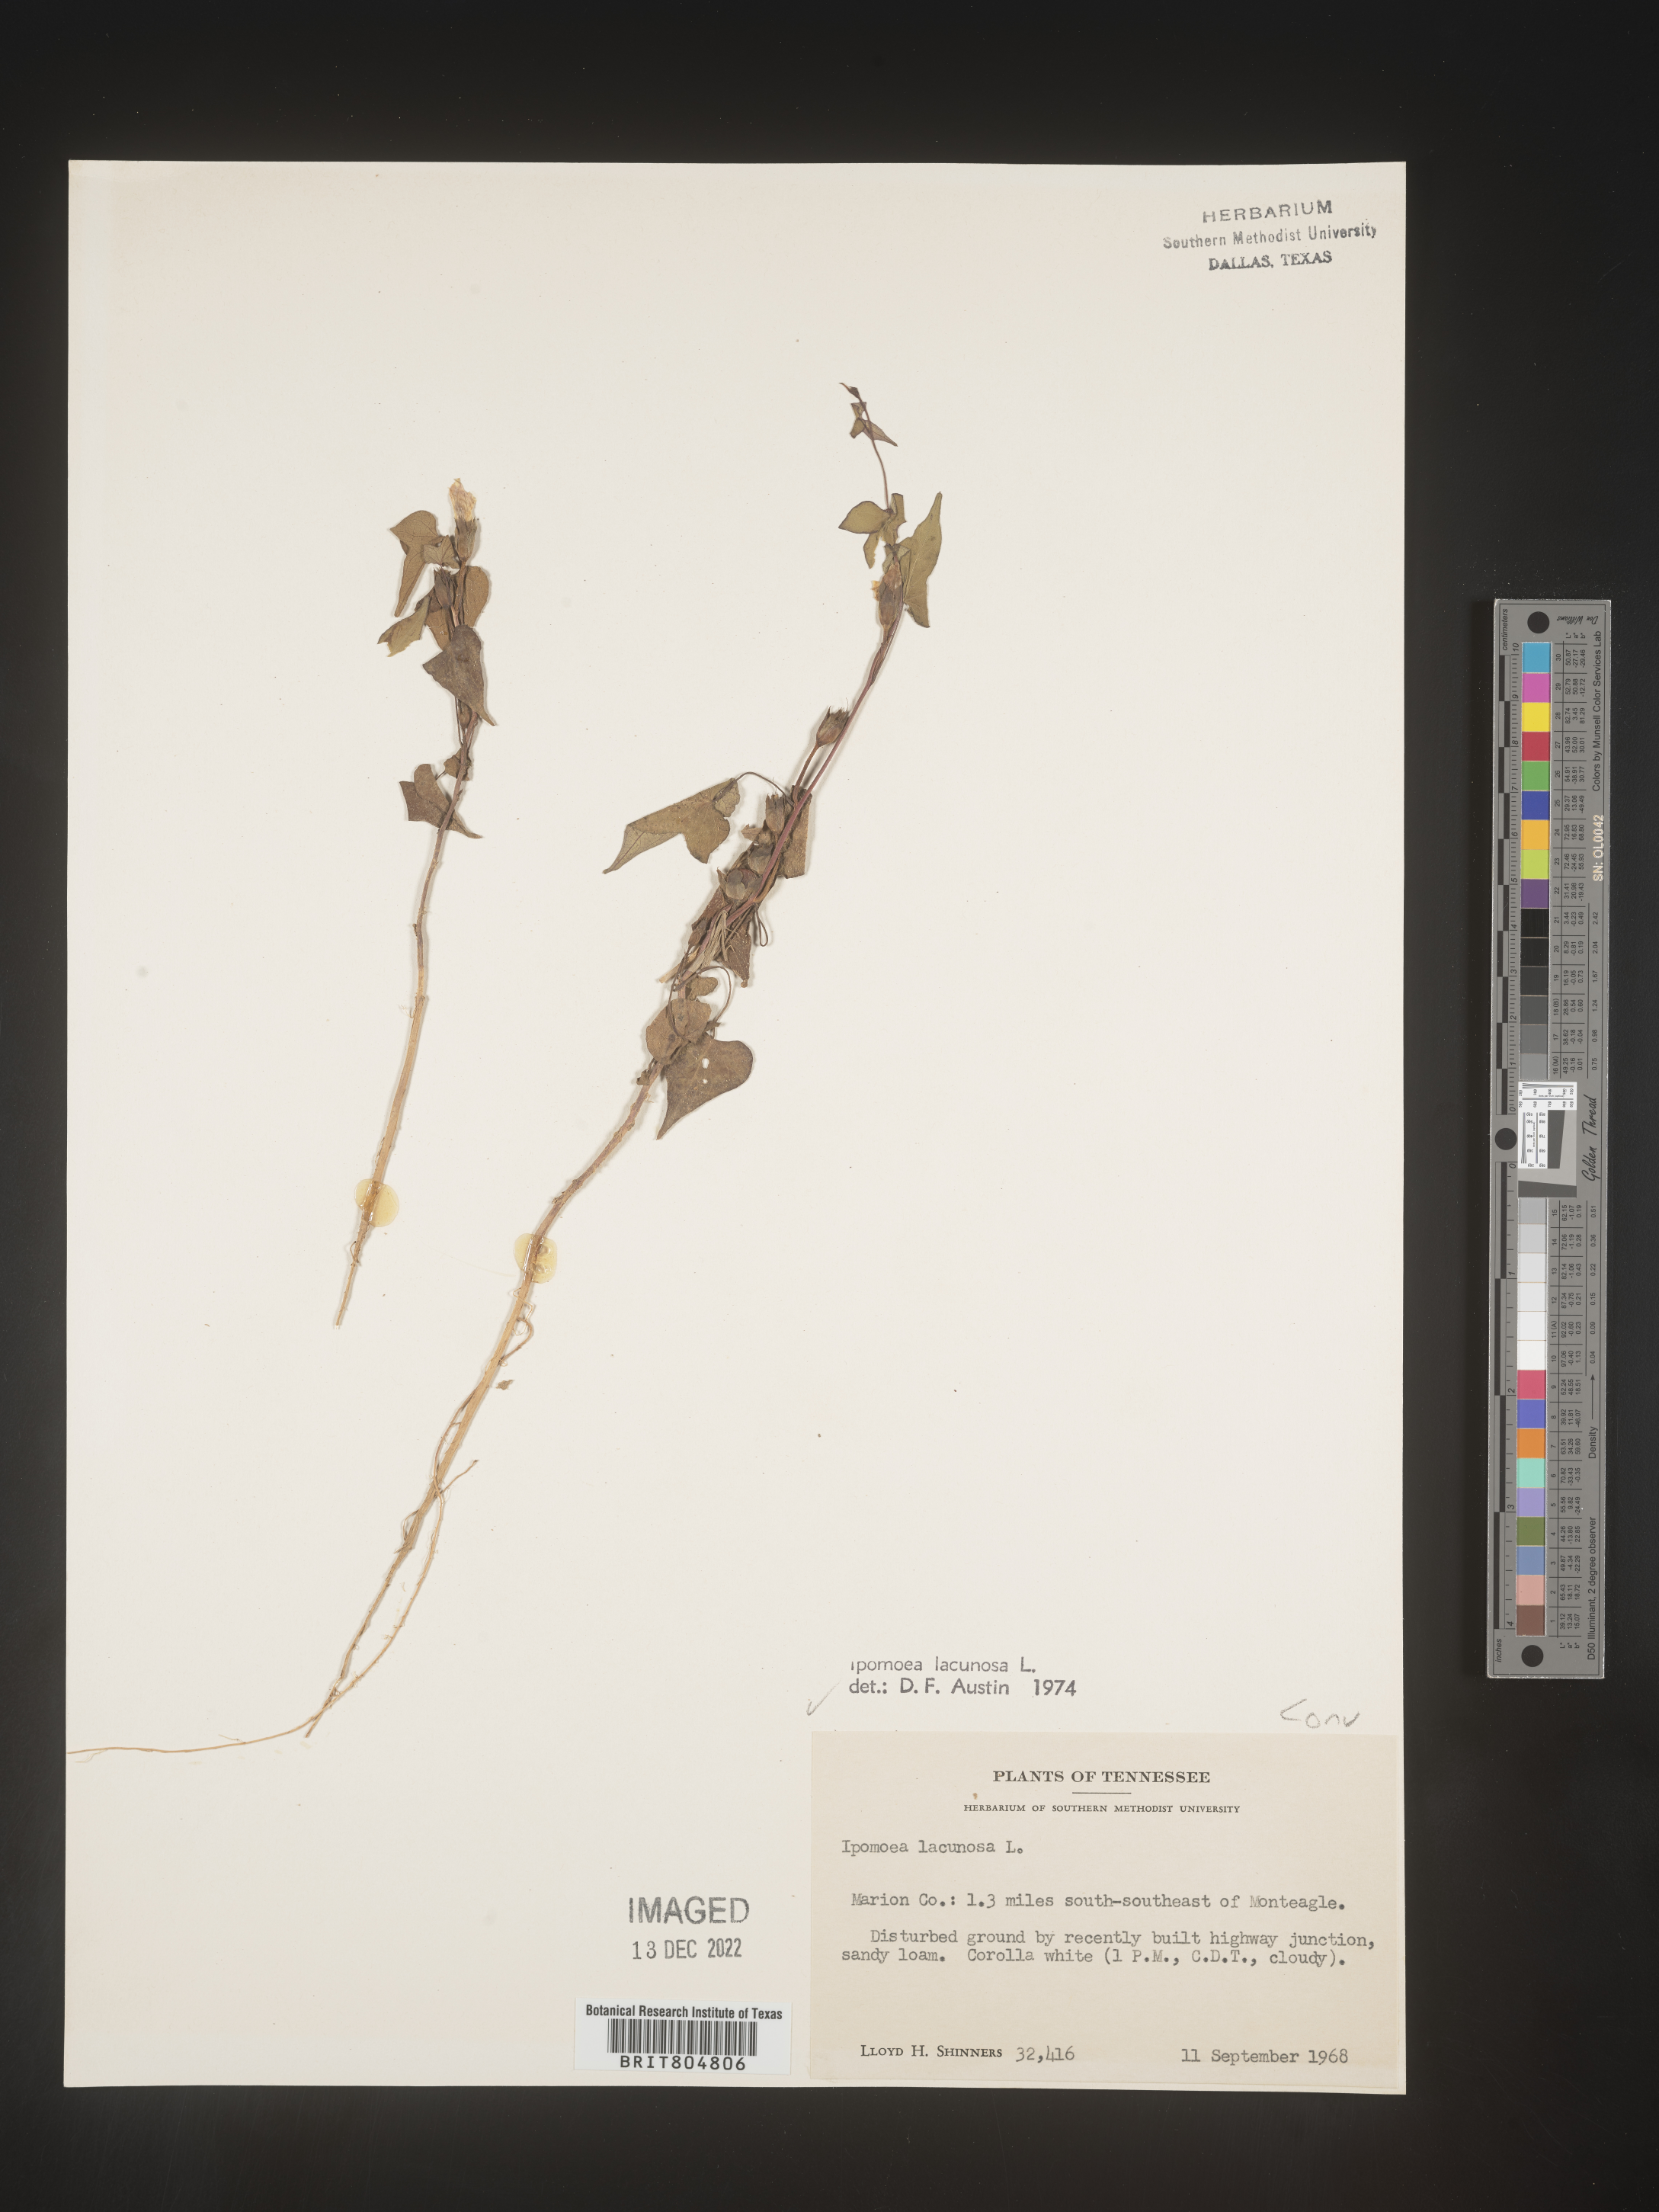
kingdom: Plantae
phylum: Tracheophyta
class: Magnoliopsida
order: Solanales
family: Convolvulaceae
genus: Ipomoea
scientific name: Ipomoea lacunosa
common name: White morning-glory
